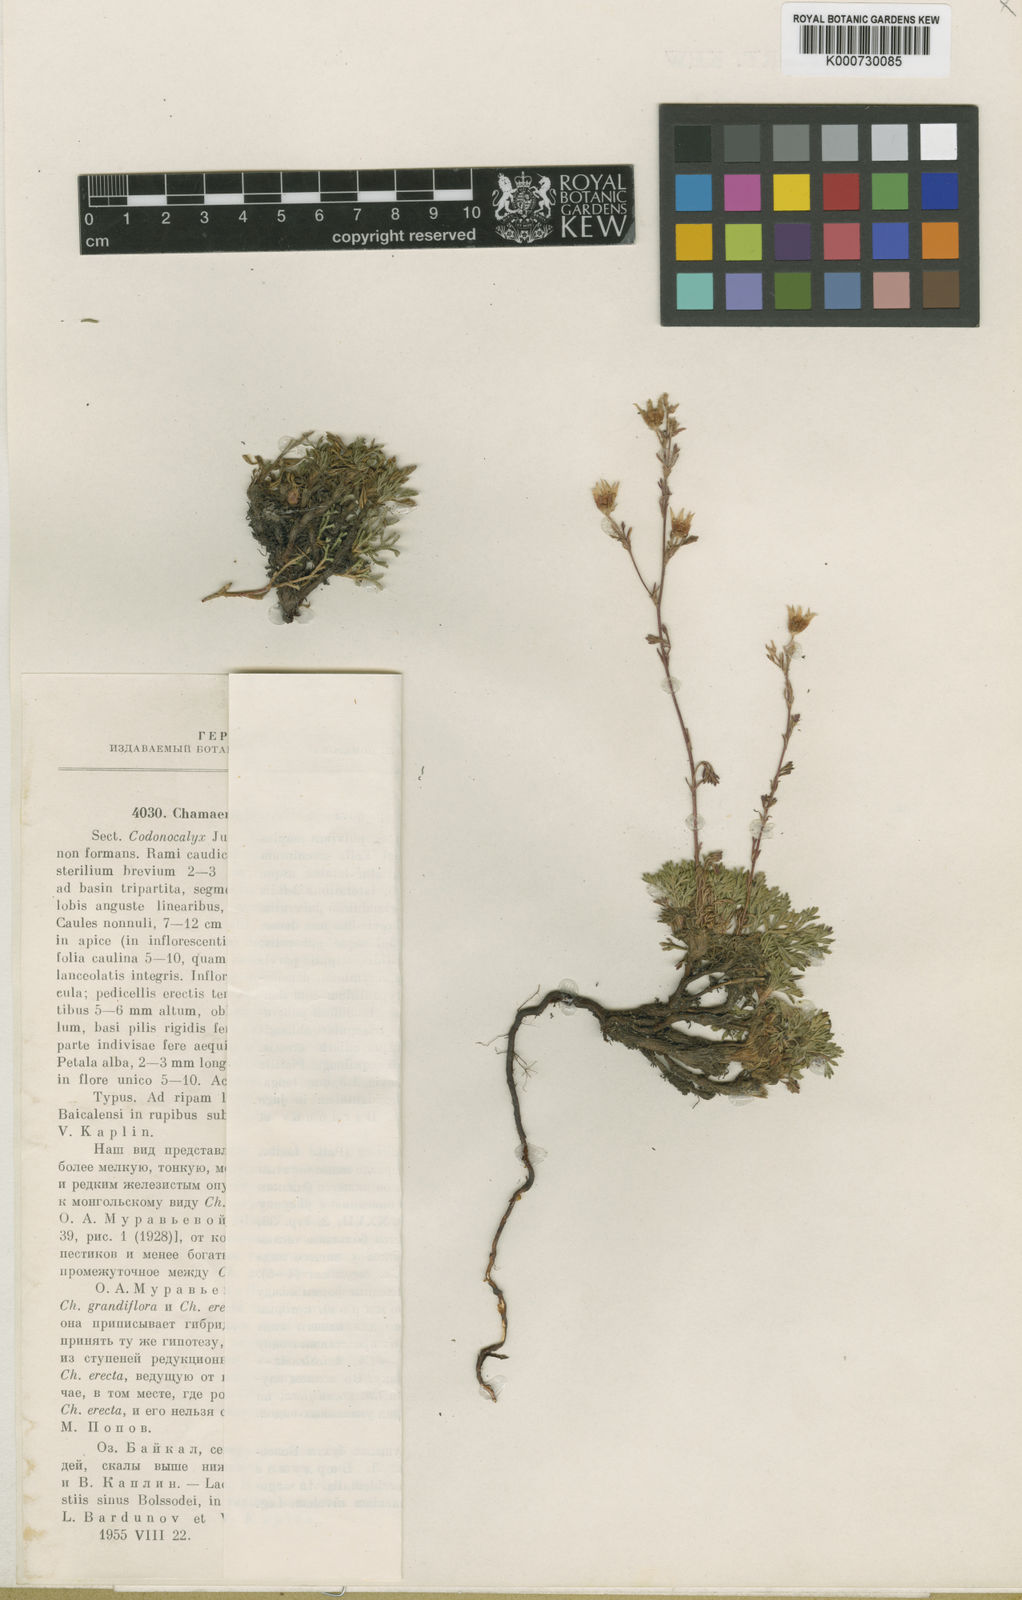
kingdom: Plantae
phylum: Tracheophyta
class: Magnoliopsida
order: Rosales
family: Rosaceae
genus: Chamaerhodos
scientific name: Chamaerhodos grandiflora
